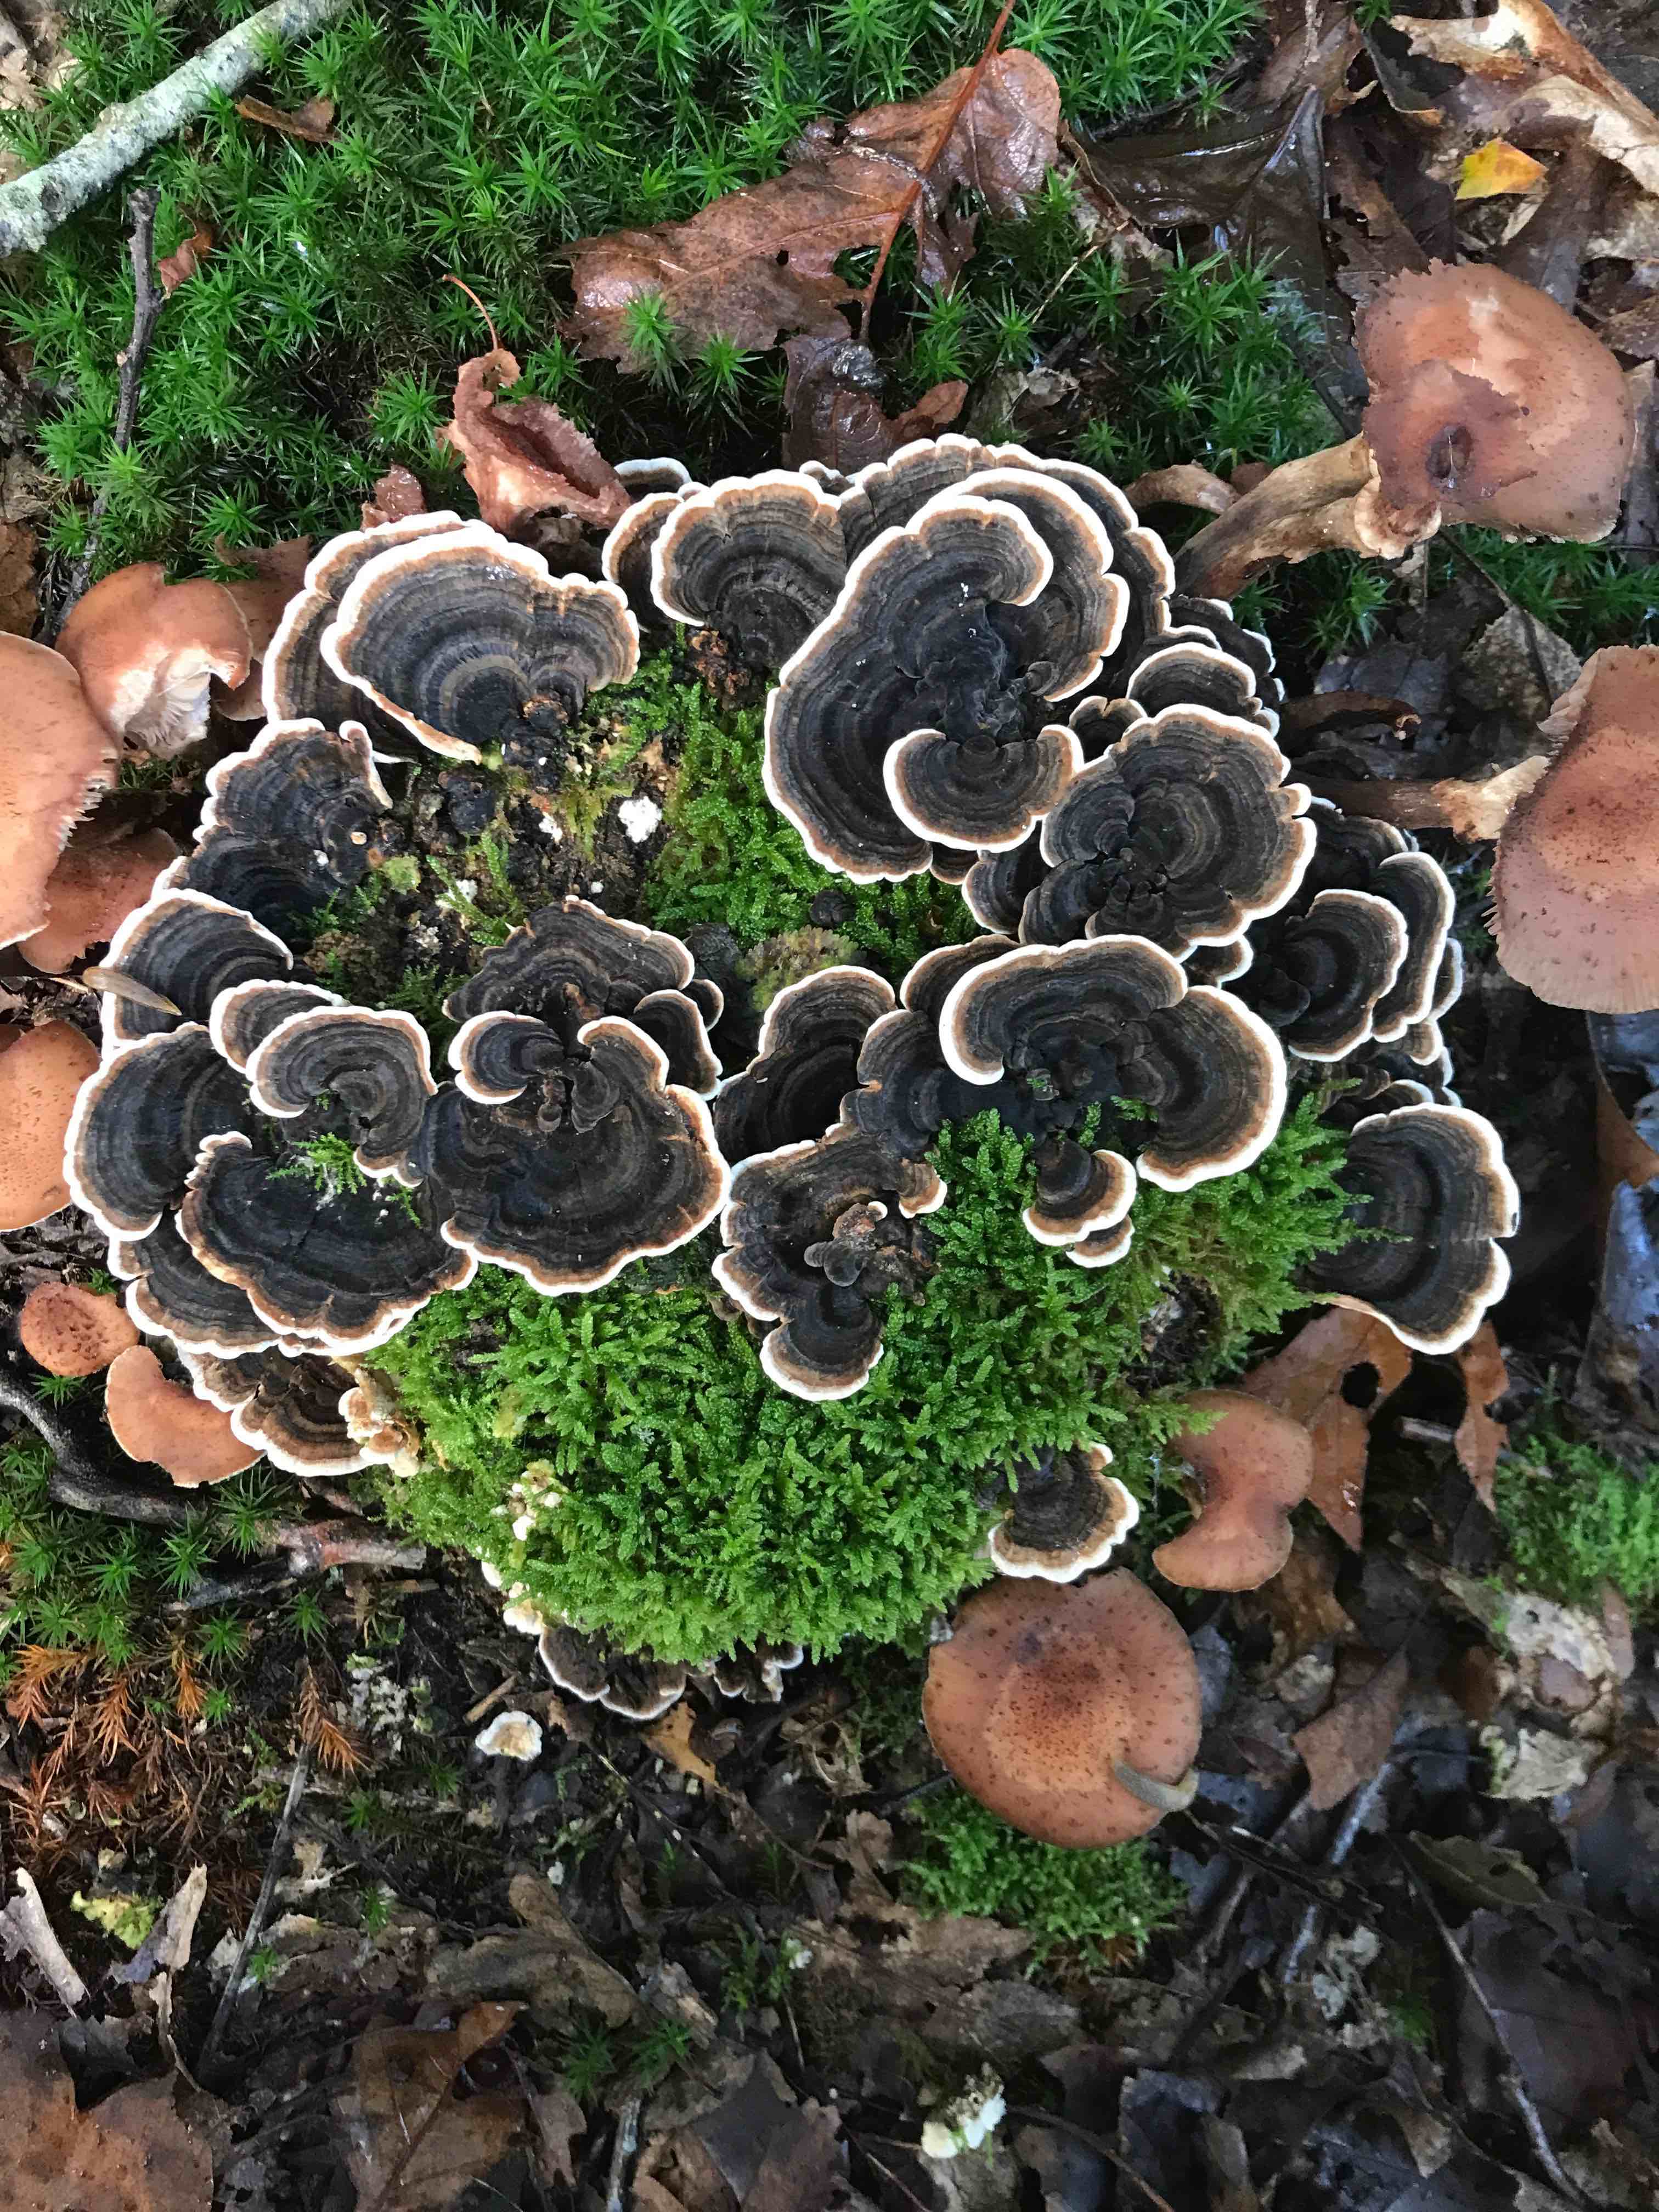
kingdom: Fungi
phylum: Basidiomycota
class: Agaricomycetes
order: Polyporales
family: Polyporaceae
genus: Trametes
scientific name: Trametes versicolor
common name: broget læderporesvamp
